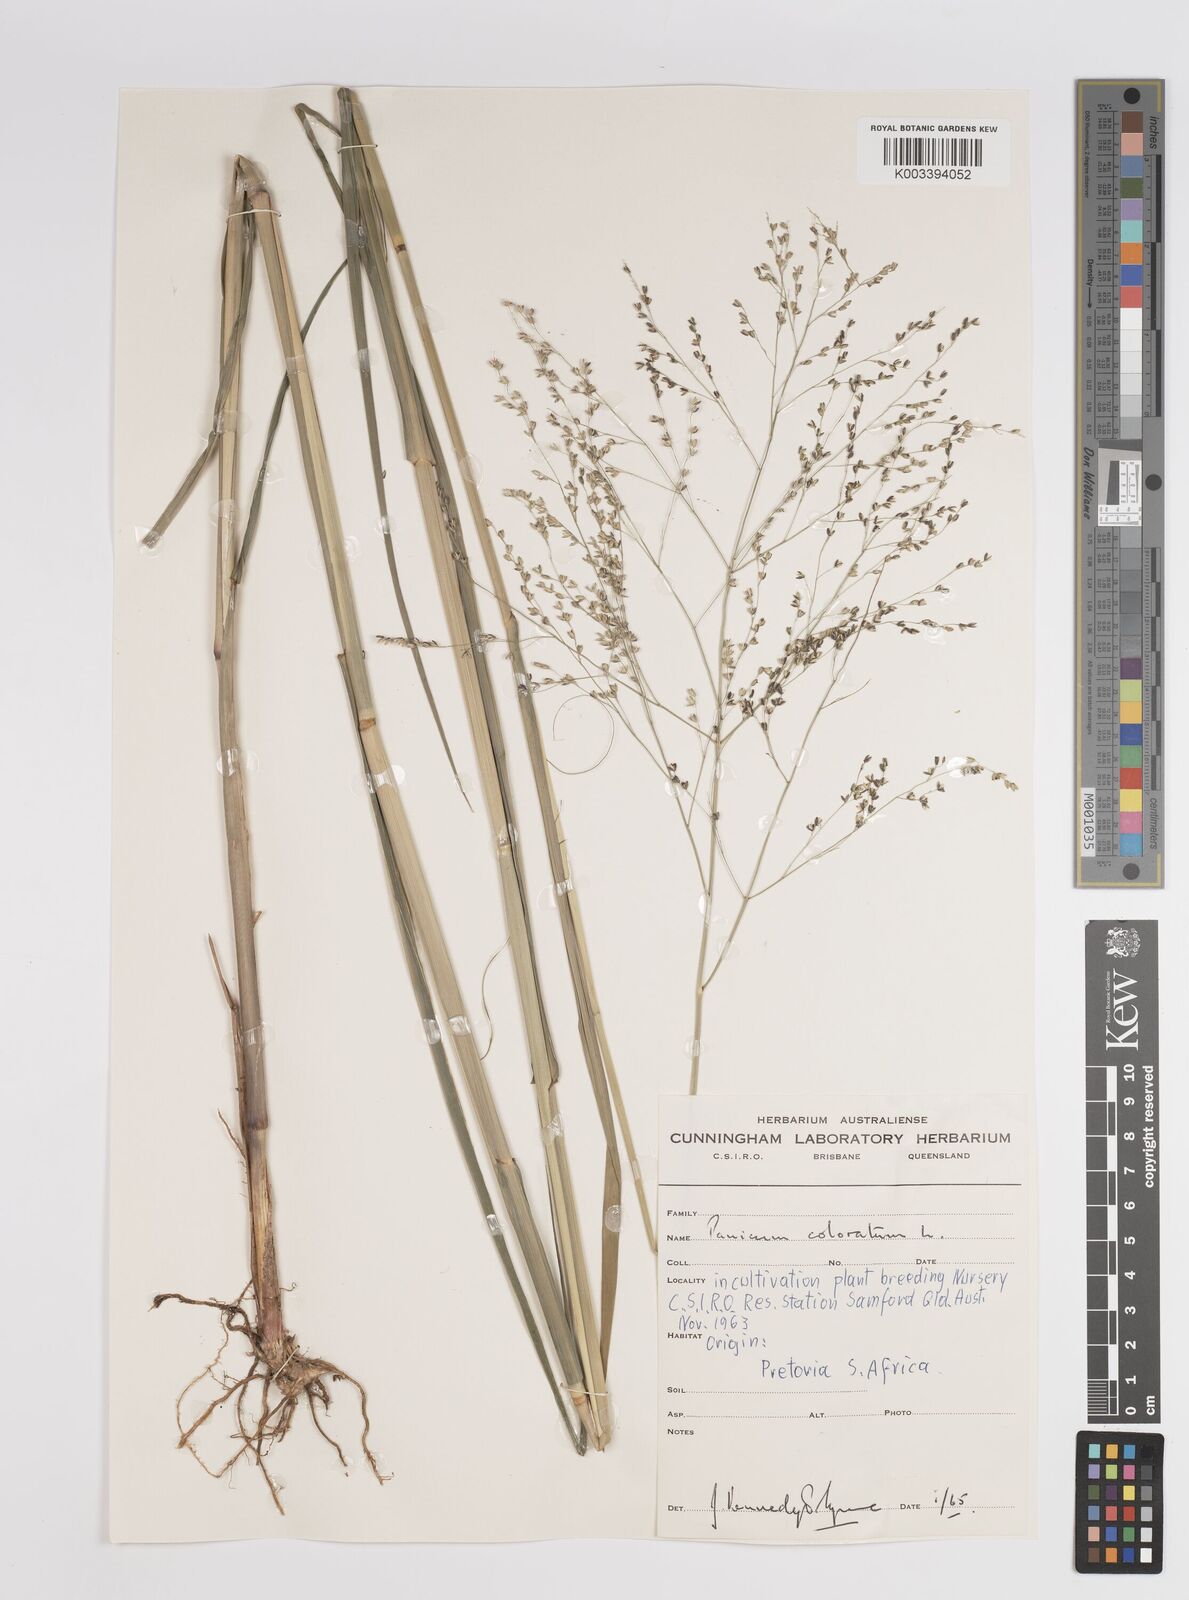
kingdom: Plantae
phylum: Tracheophyta
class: Liliopsida
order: Poales
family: Poaceae
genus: Panicum
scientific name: Panicum coloratum
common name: Kleingrass
